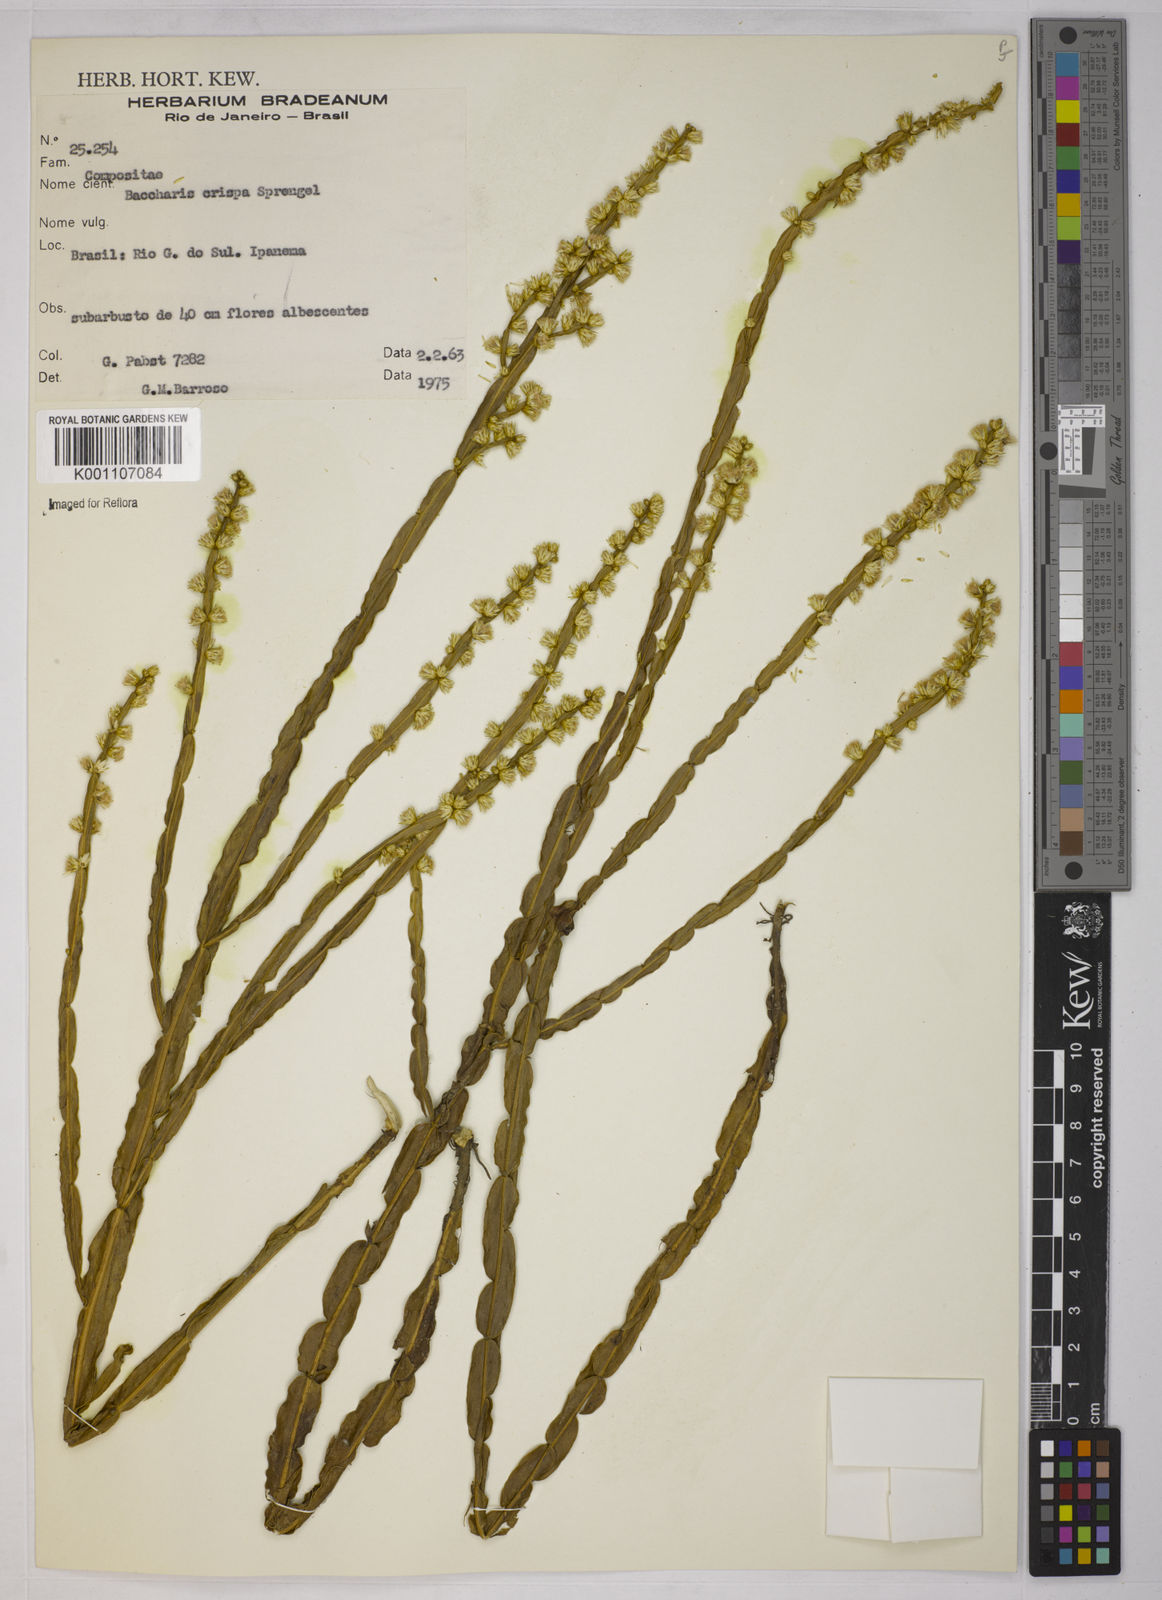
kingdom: Plantae
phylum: Tracheophyta
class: Magnoliopsida
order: Asterales
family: Asteraceae
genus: Baccharis
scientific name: Baccharis crispa
